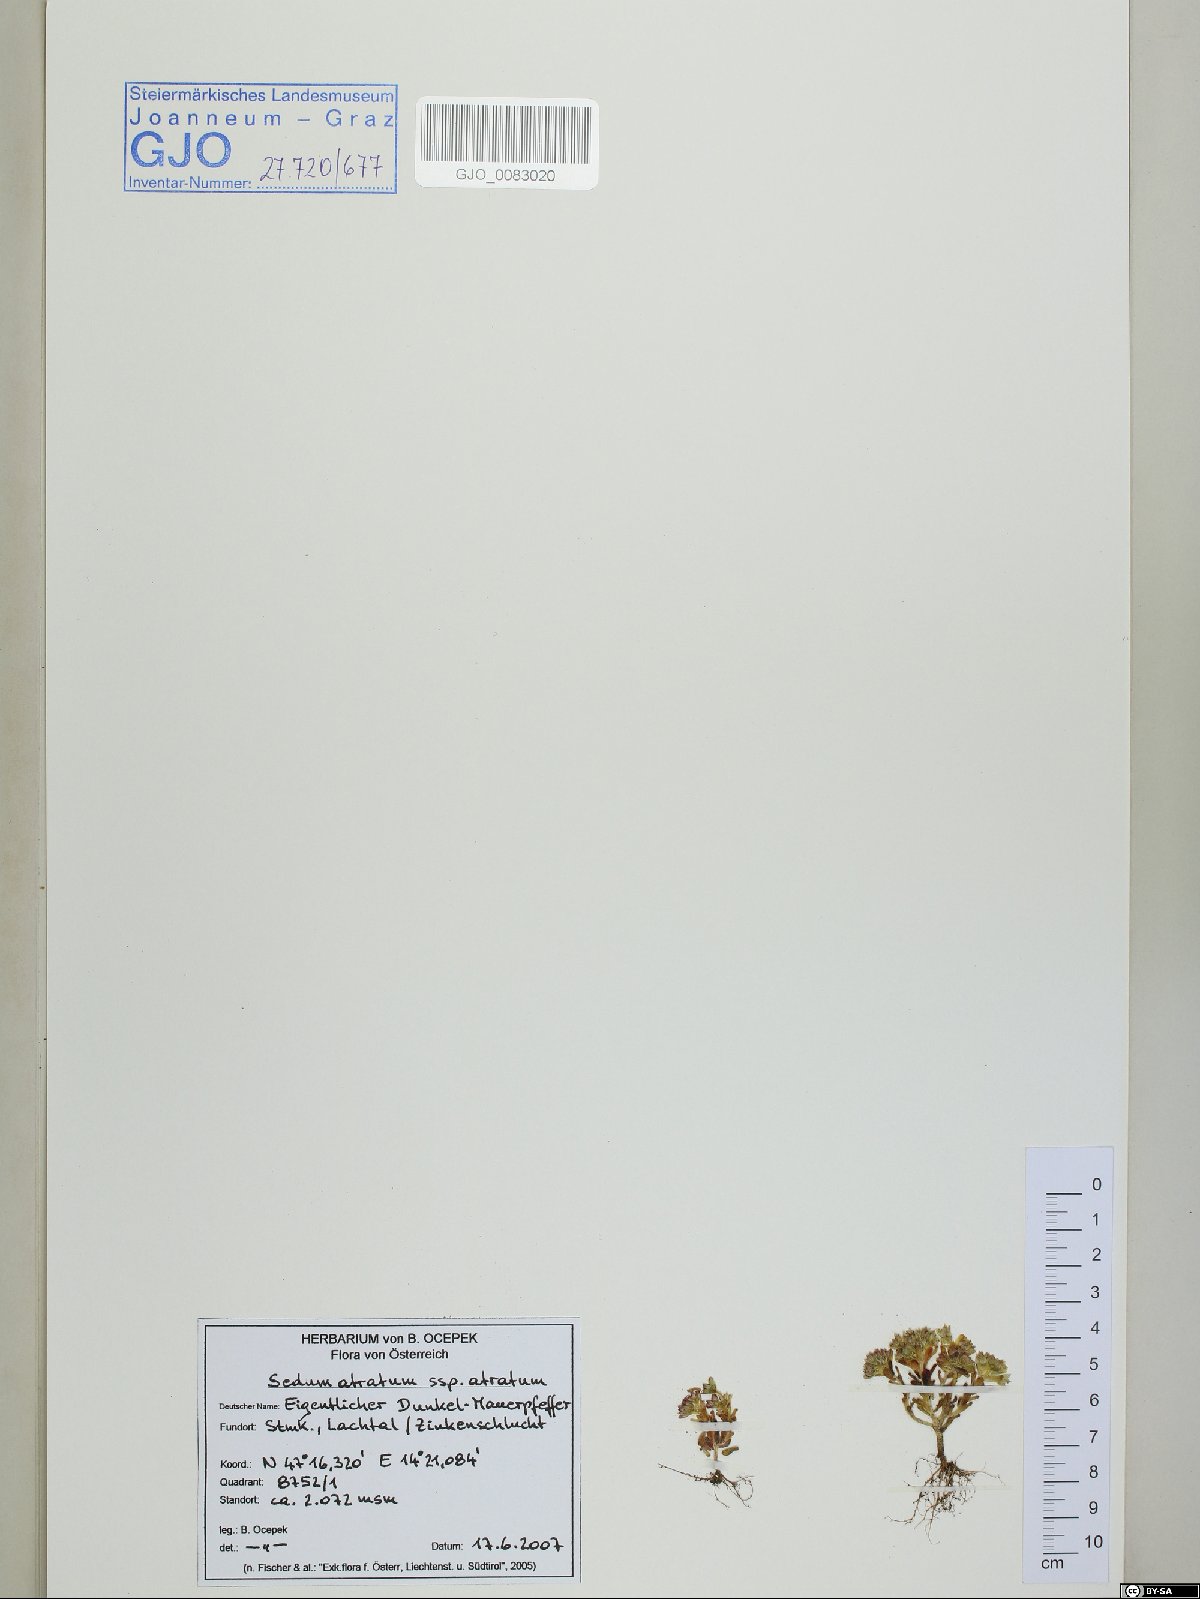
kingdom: Plantae
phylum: Tracheophyta
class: Magnoliopsida
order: Saxifragales
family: Crassulaceae
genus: Sedum
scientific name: Sedum atratum
